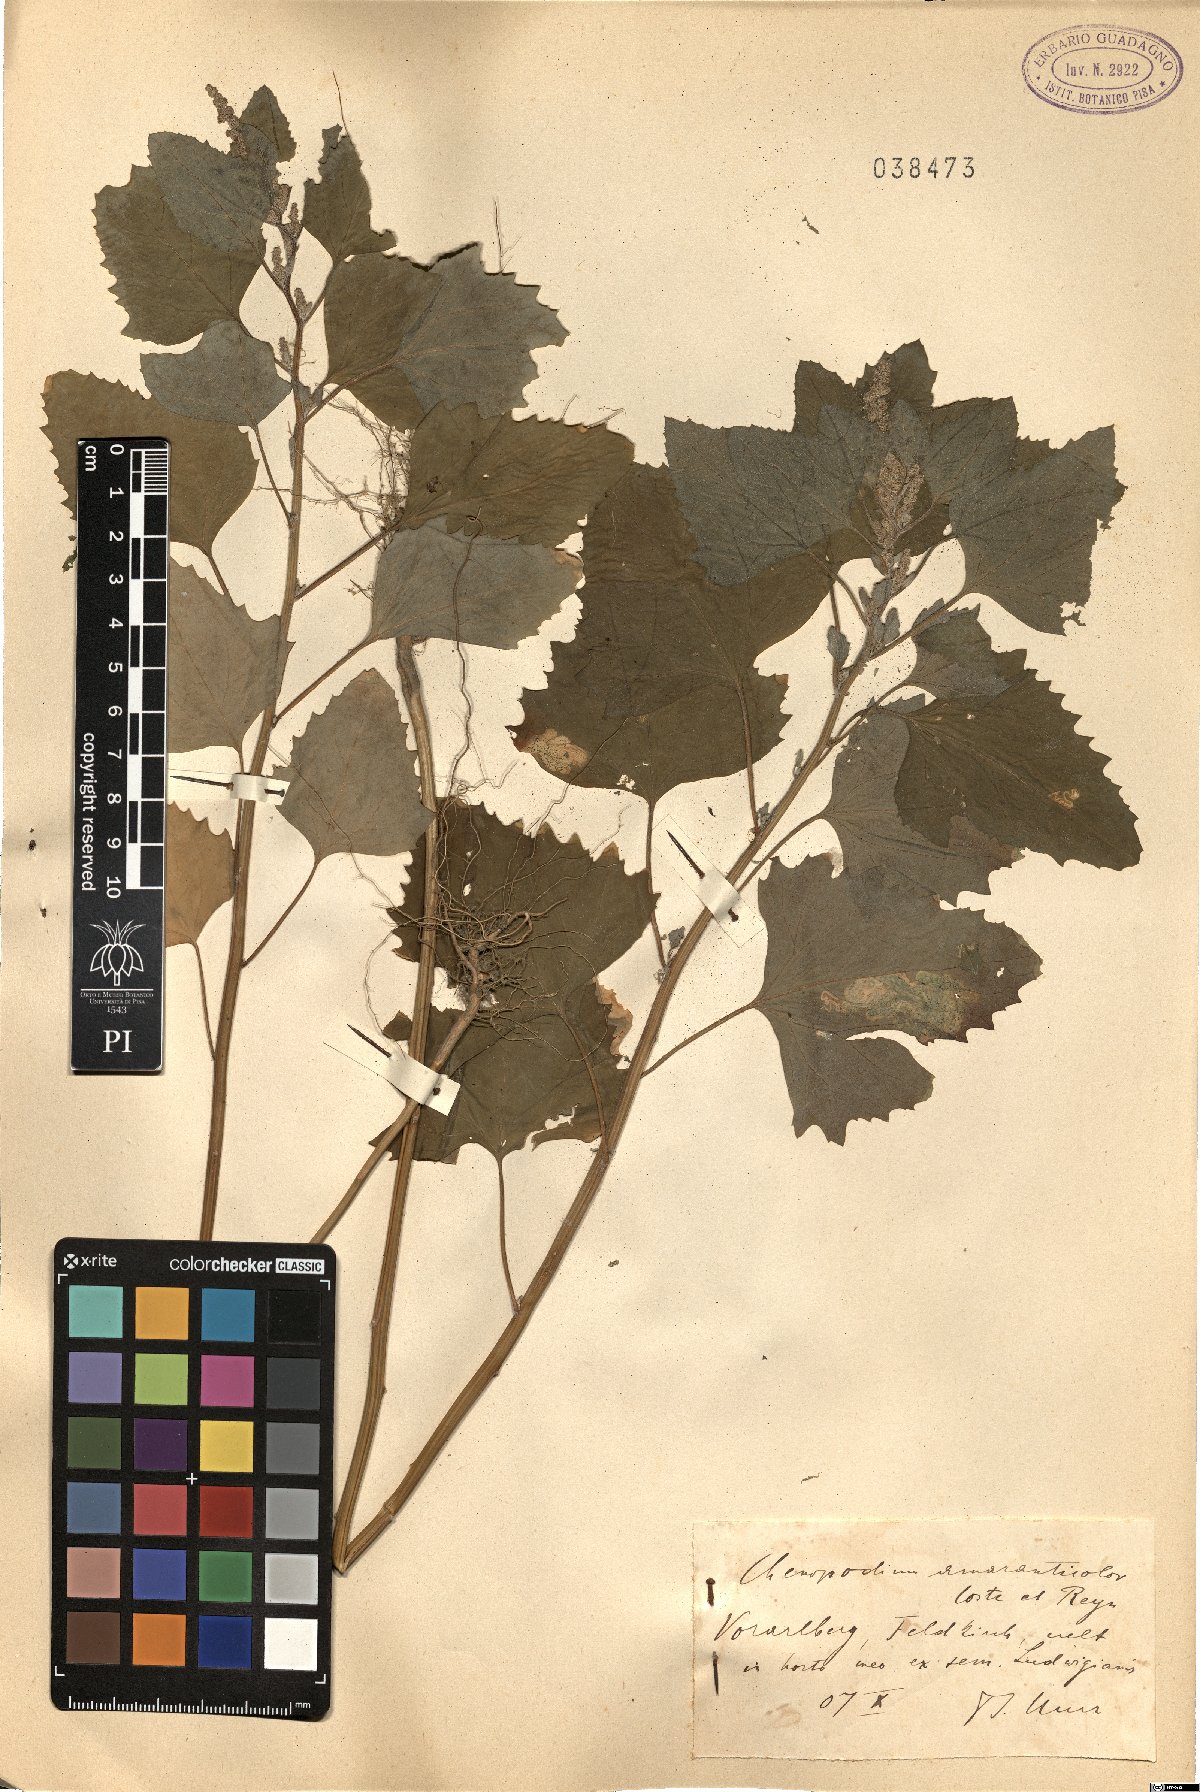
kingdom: Plantae
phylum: Tracheophyta
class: Magnoliopsida
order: Caryophyllales
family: Amaranthaceae
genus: Chenopodium
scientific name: Chenopodium giganteum
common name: Magentaspreen
